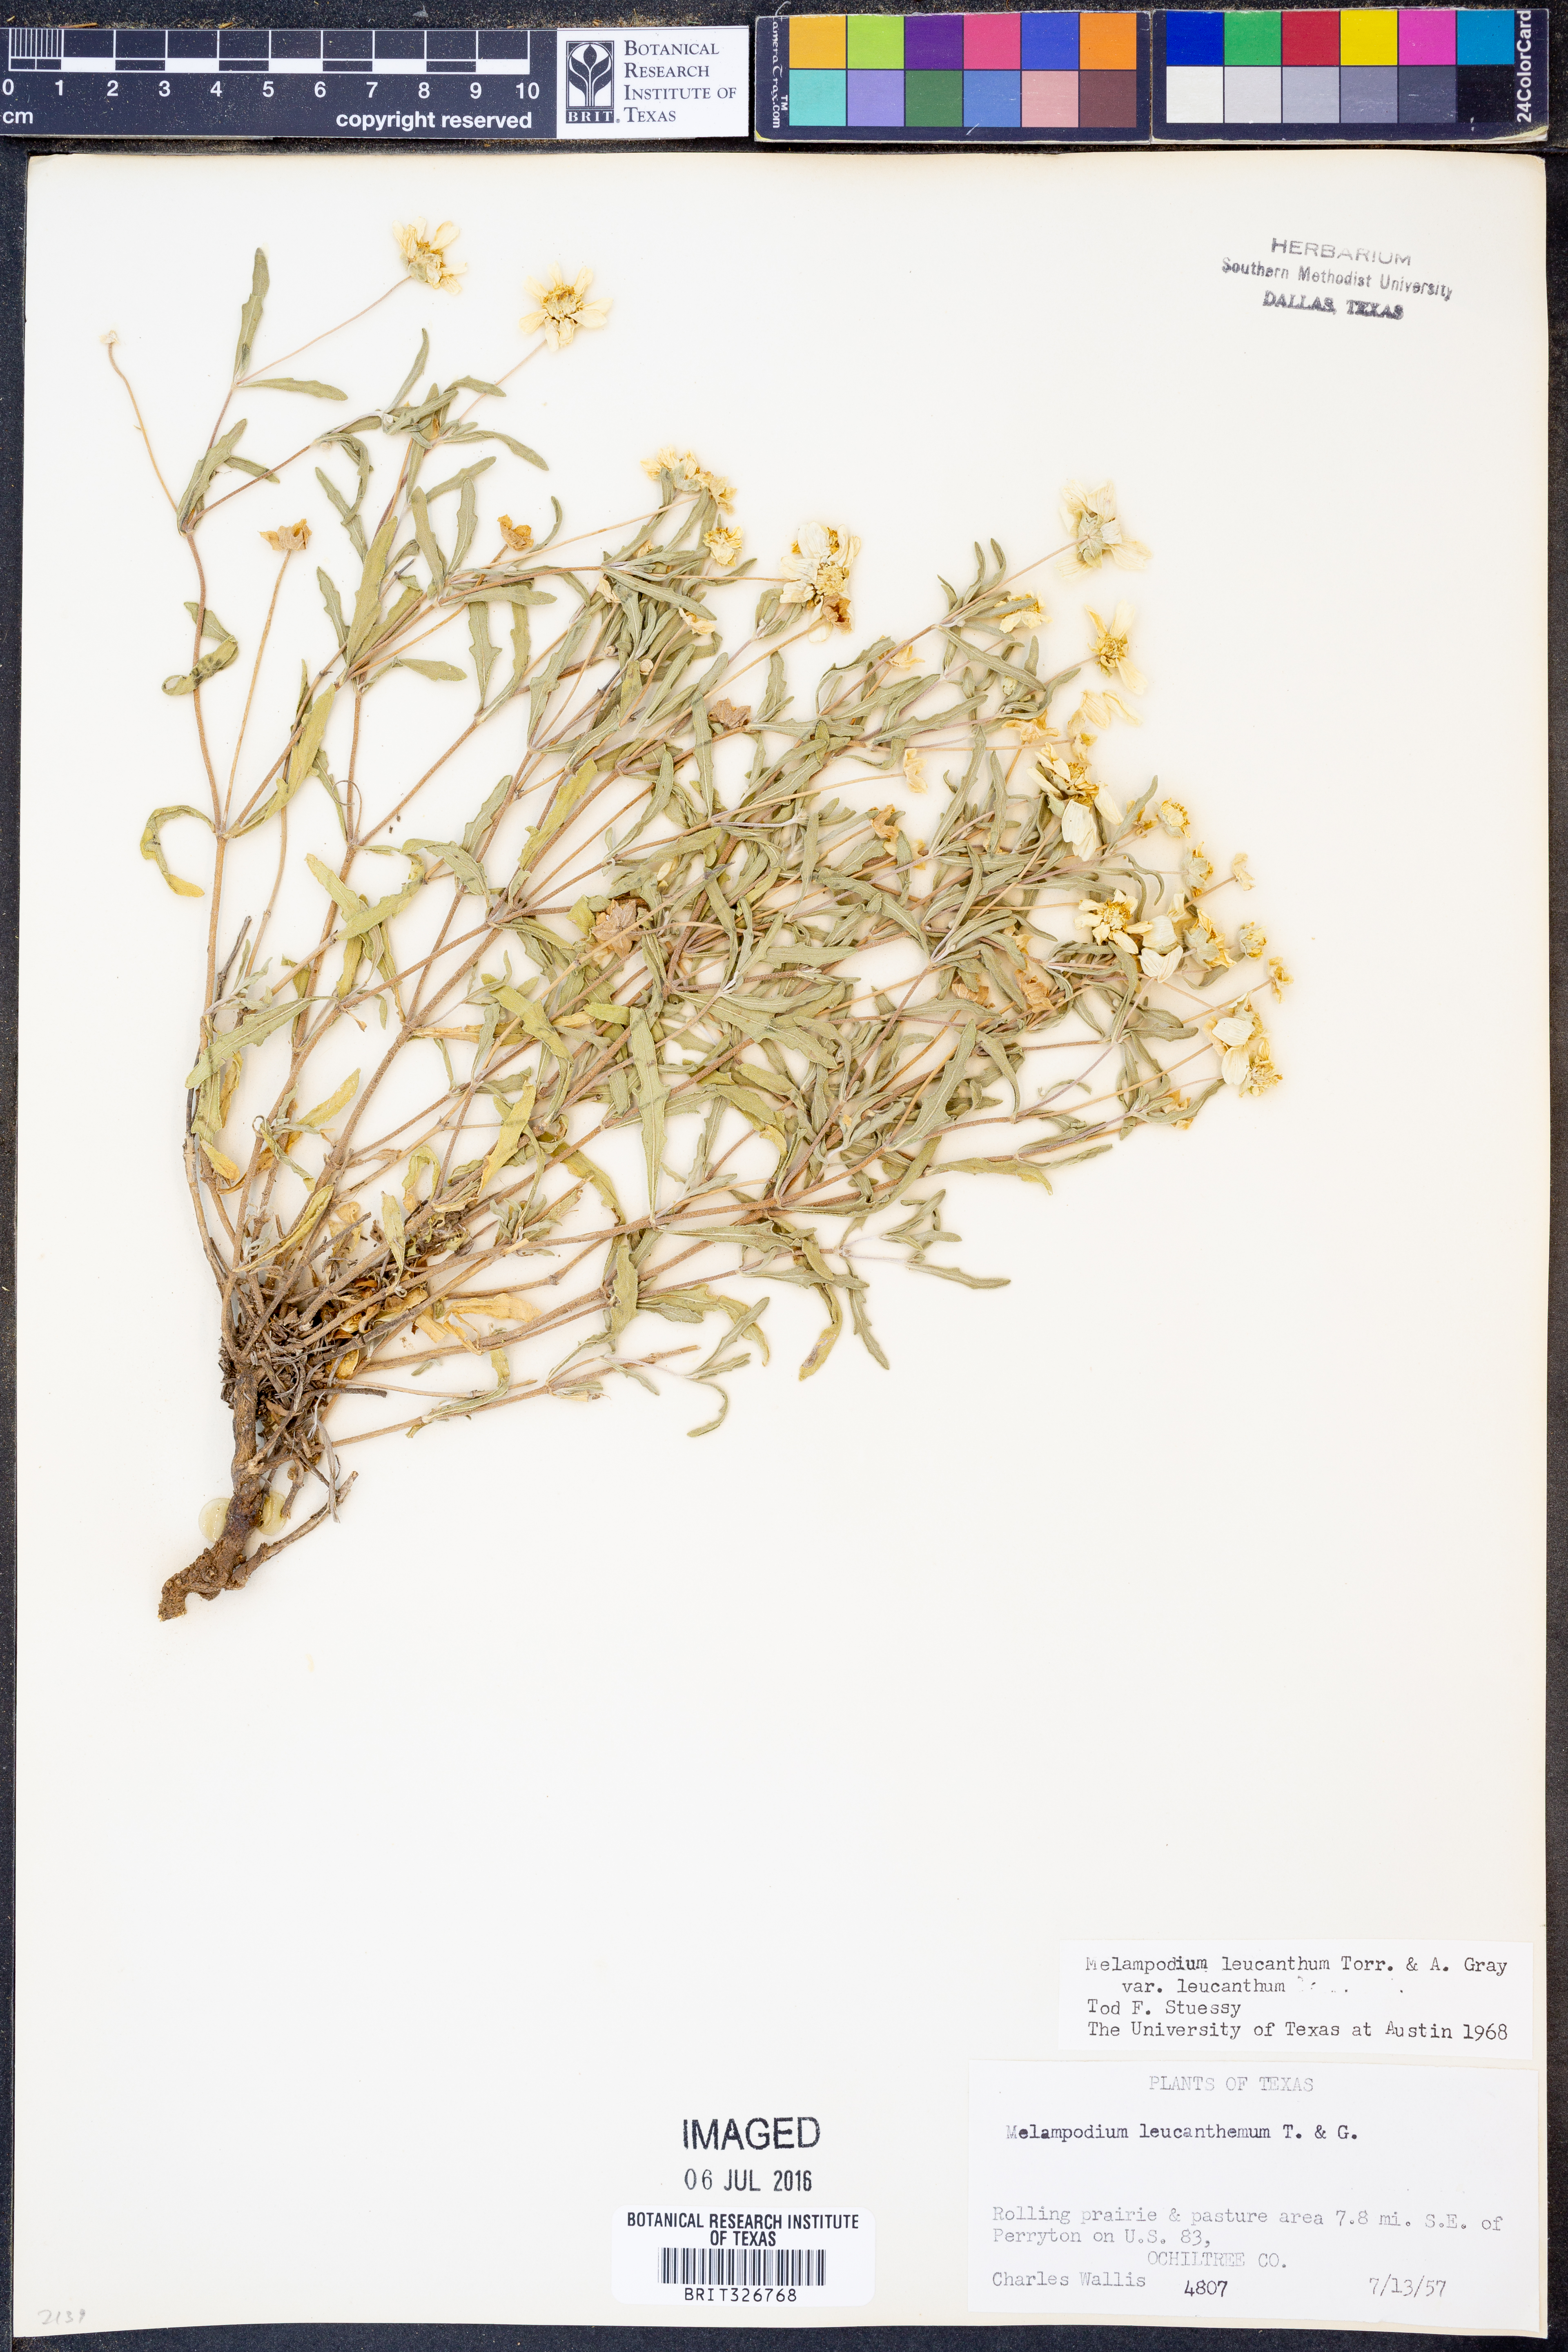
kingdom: Plantae
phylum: Tracheophyta
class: Magnoliopsida
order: Asterales
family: Asteraceae
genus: Melampodium
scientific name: Melampodium leucanthum
